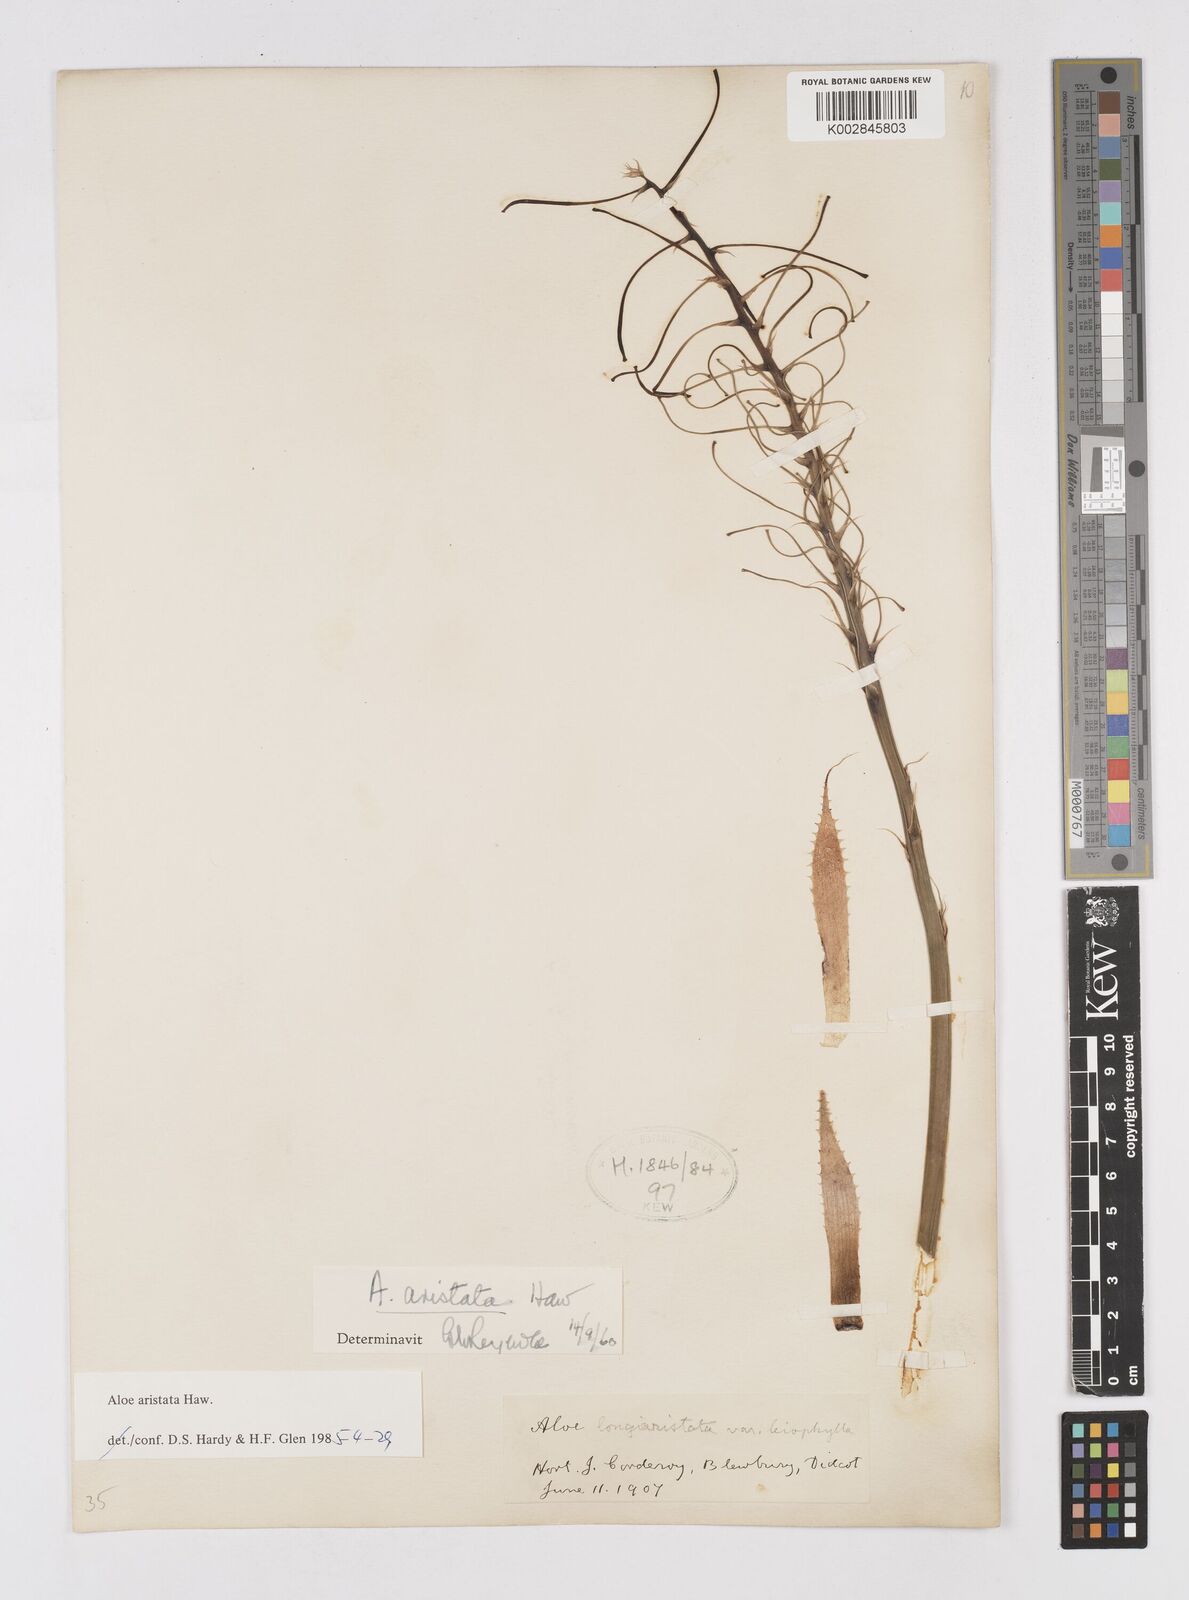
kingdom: Plantae
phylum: Tracheophyta
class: Liliopsida
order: Asparagales
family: Asphodelaceae
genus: Aristaloe
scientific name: Aristaloe aristata
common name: Guinea-fowl aloe
